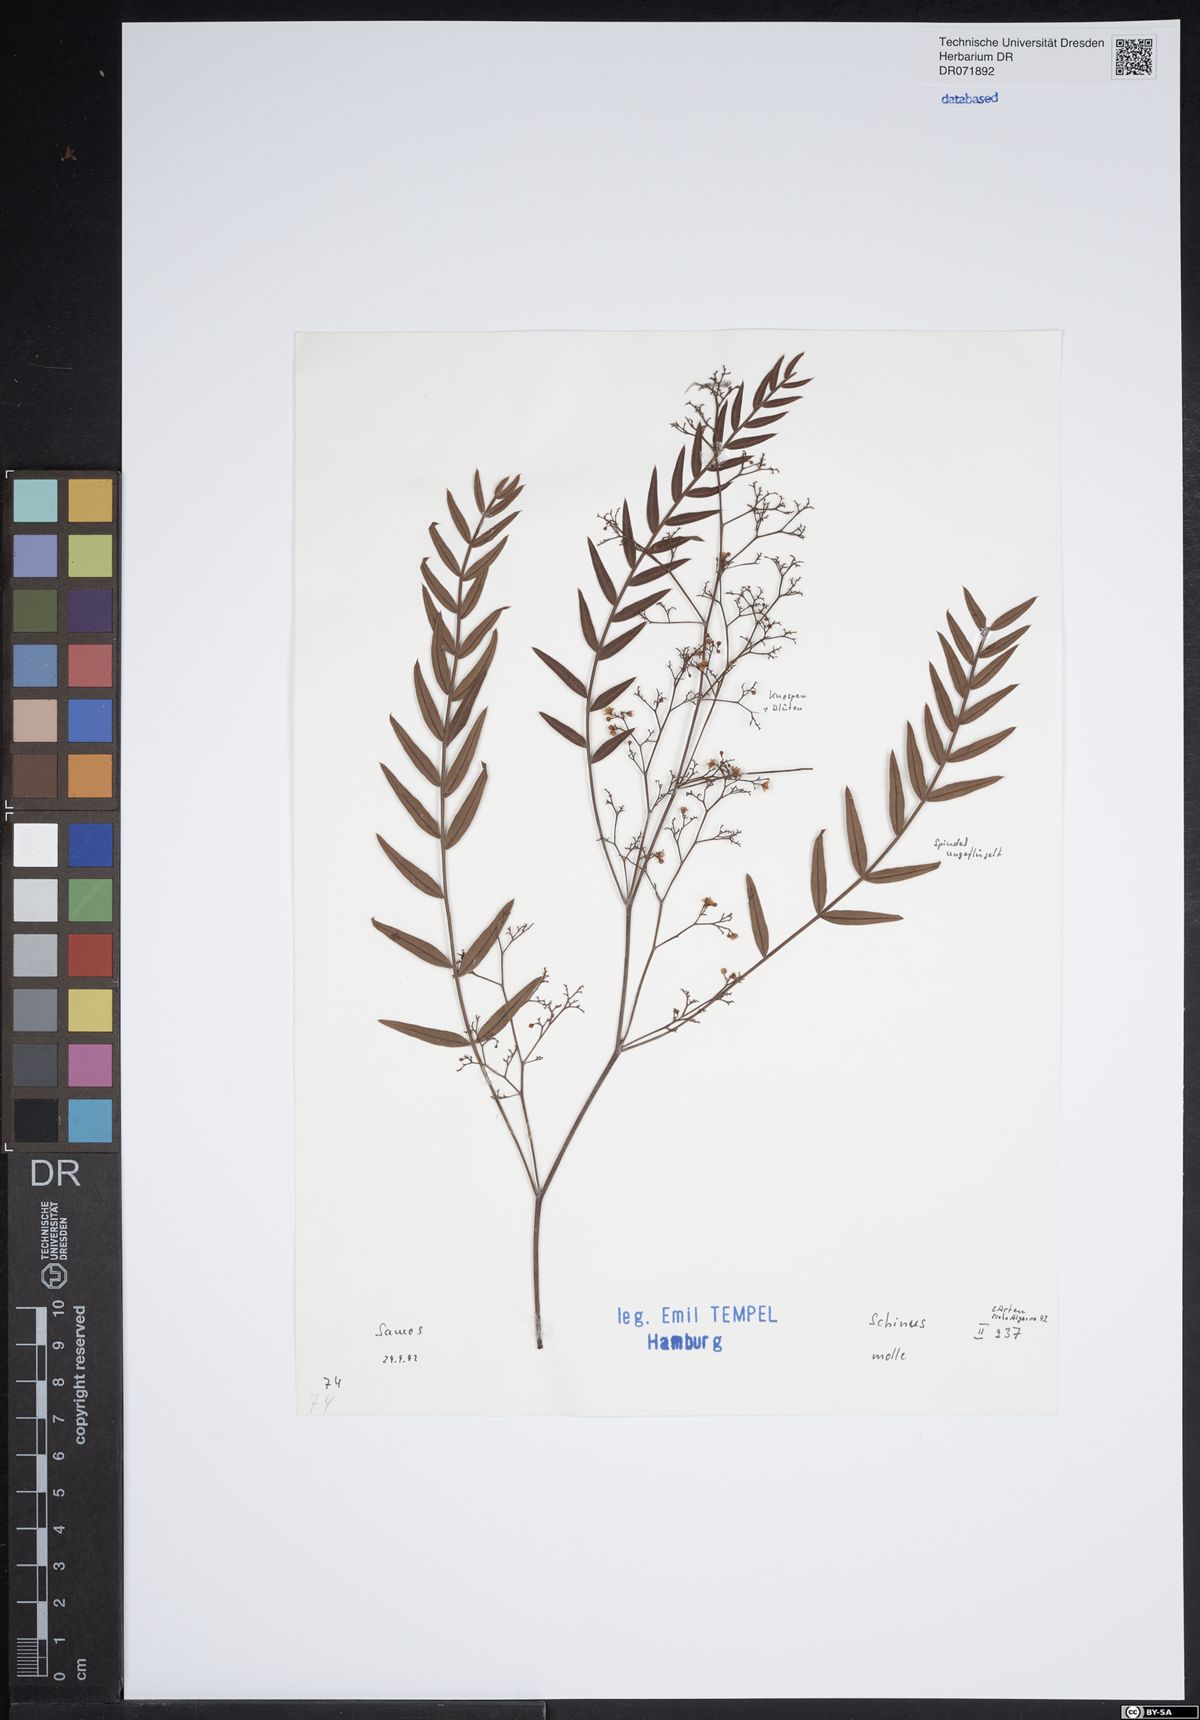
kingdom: Plantae
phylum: Tracheophyta
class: Magnoliopsida
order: Sapindales
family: Anacardiaceae
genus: Schinus
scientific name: Schinus molle
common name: Peruvian peppertree
